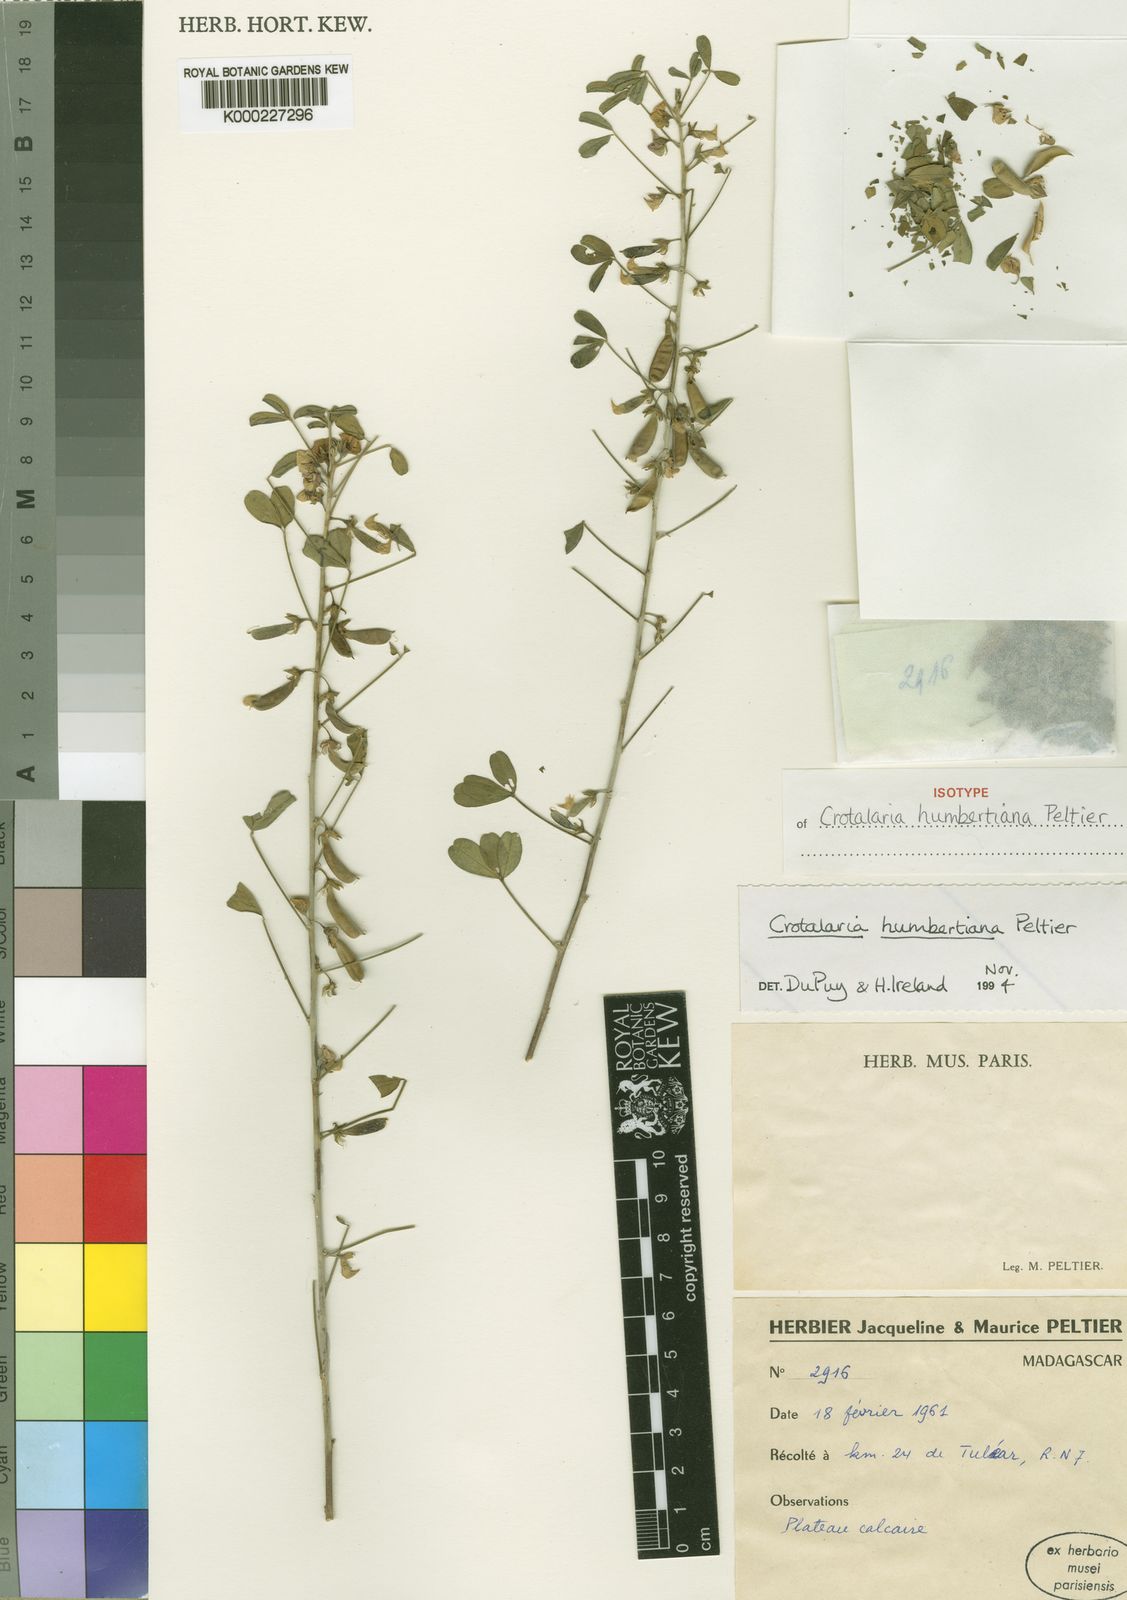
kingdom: Plantae
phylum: Tracheophyta
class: Magnoliopsida
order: Fabales
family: Fabaceae
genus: Crotalaria
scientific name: Crotalaria humbertiana
